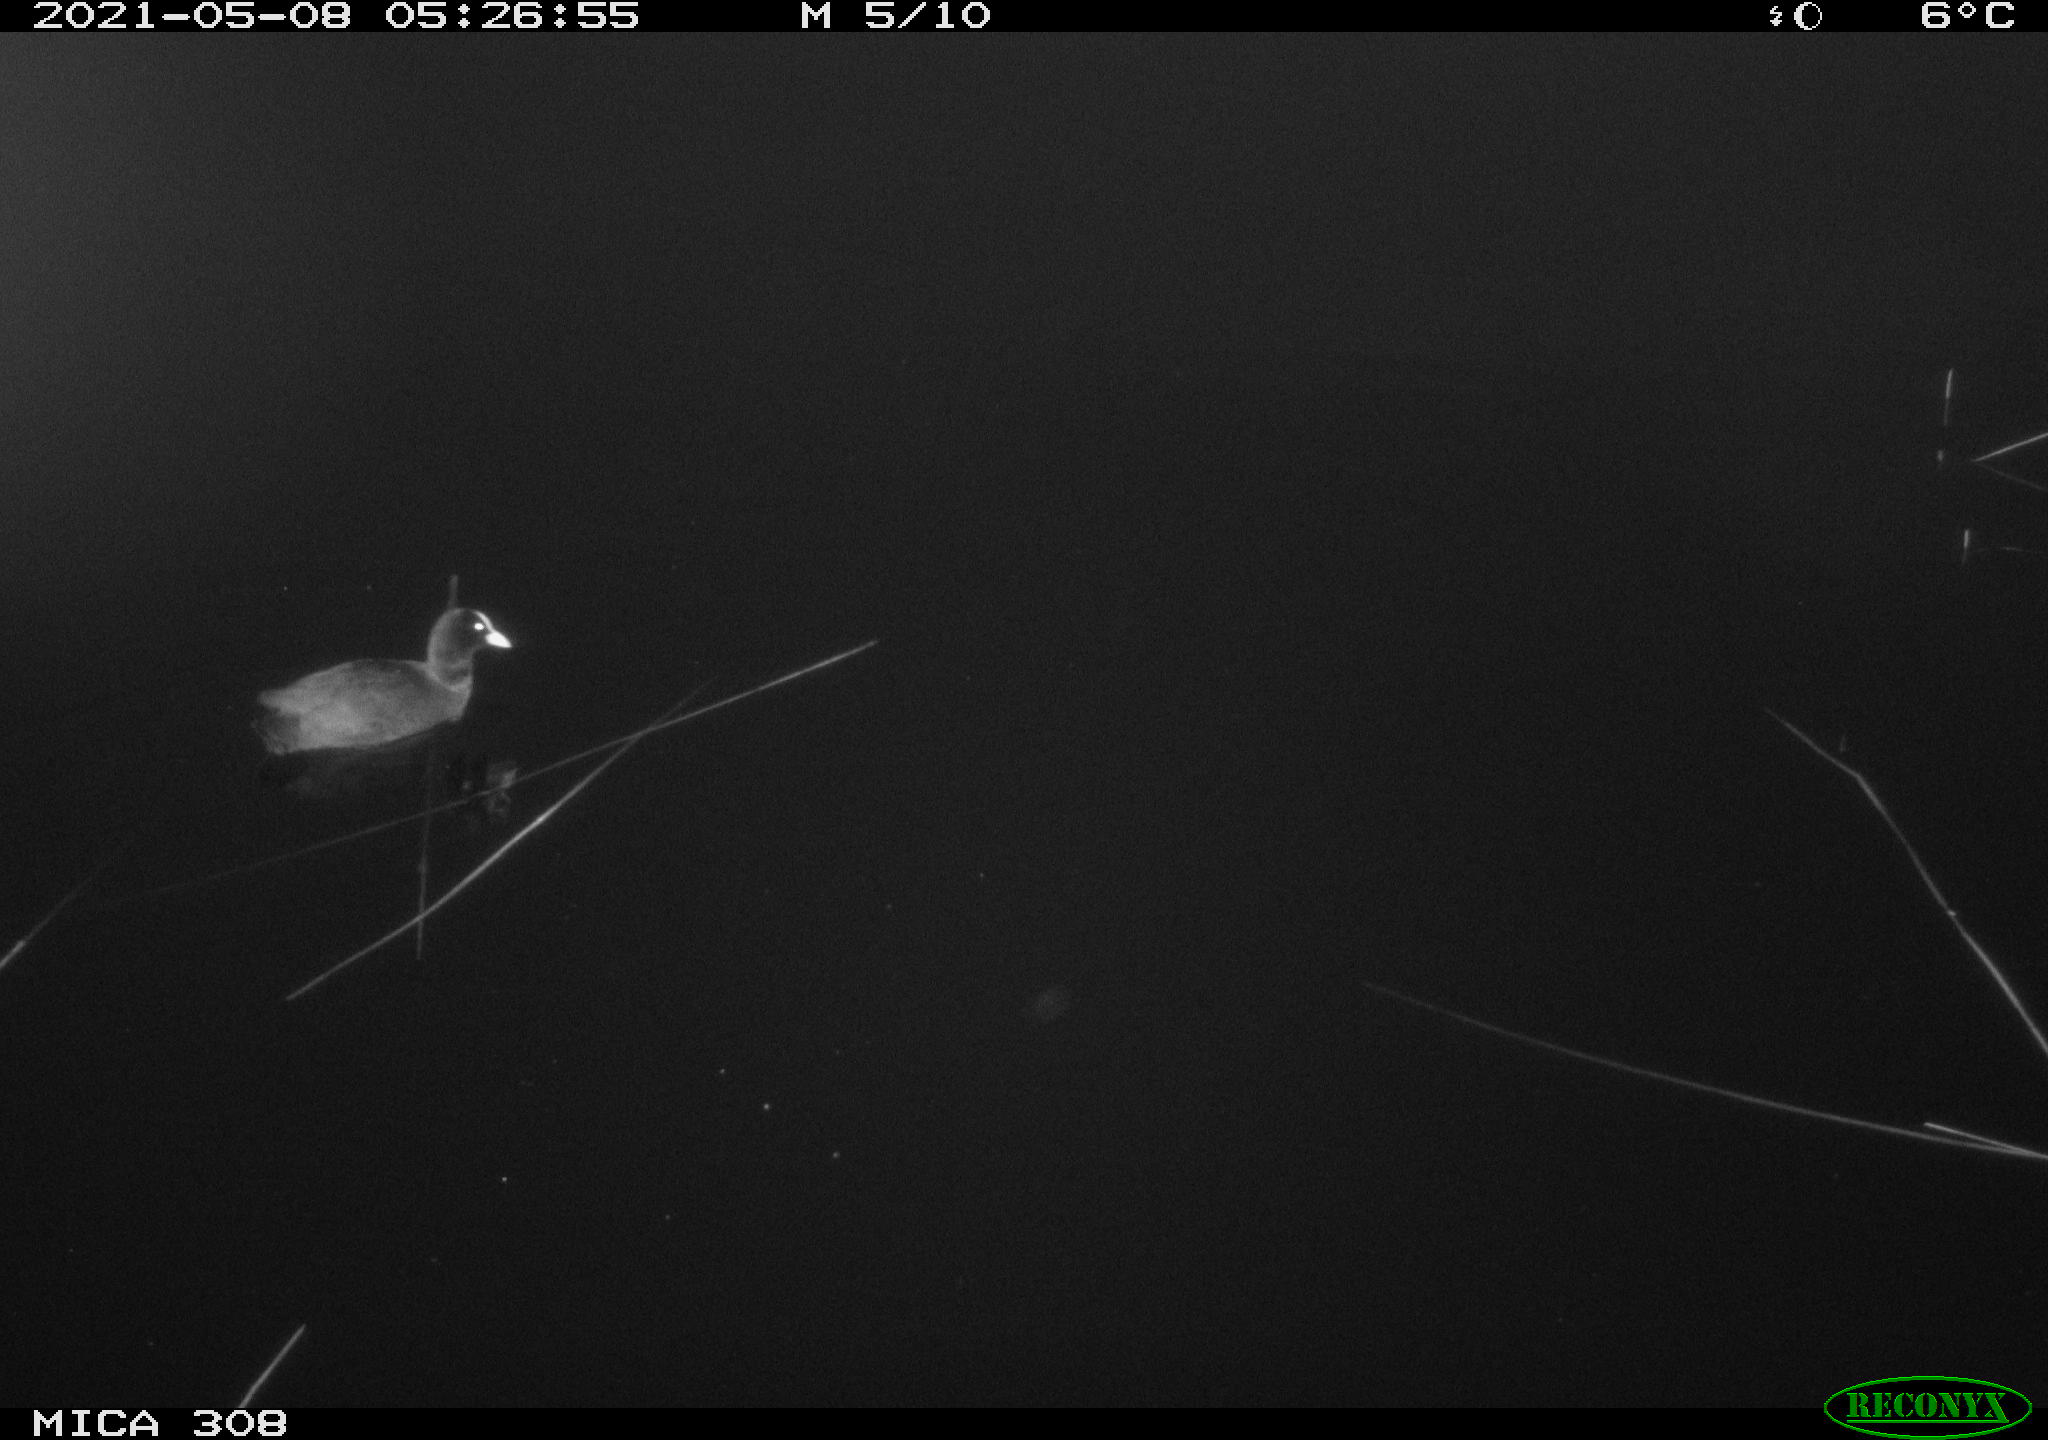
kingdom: Animalia
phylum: Chordata
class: Aves
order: Gruiformes
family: Rallidae
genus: Fulica
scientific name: Fulica atra
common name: Eurasian coot
